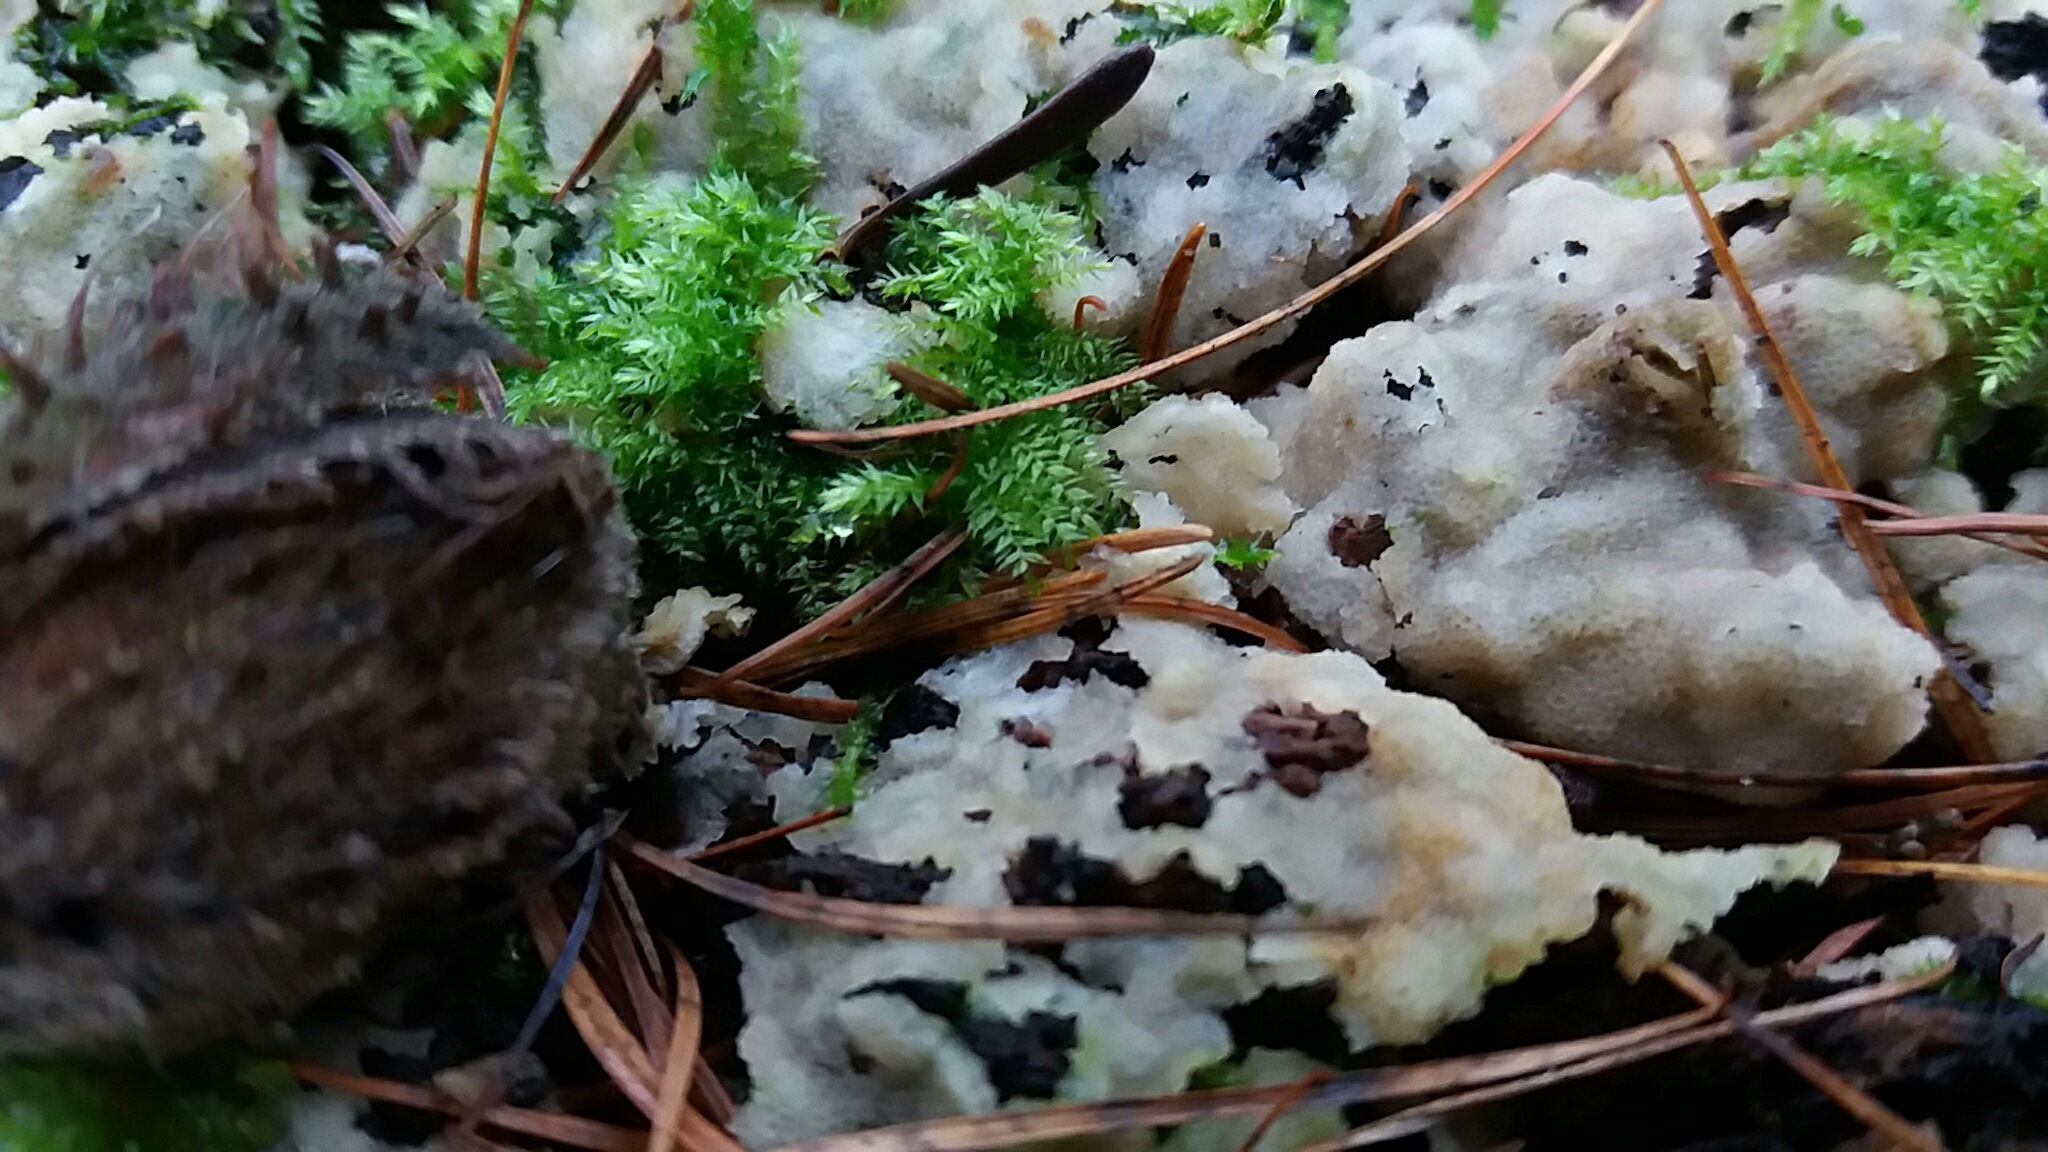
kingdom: Fungi
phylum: Basidiomycota
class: Agaricomycetes
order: Polyporales
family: Meruliaceae
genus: Physisporinus
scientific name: Physisporinus vitreus
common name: mastesvamp
